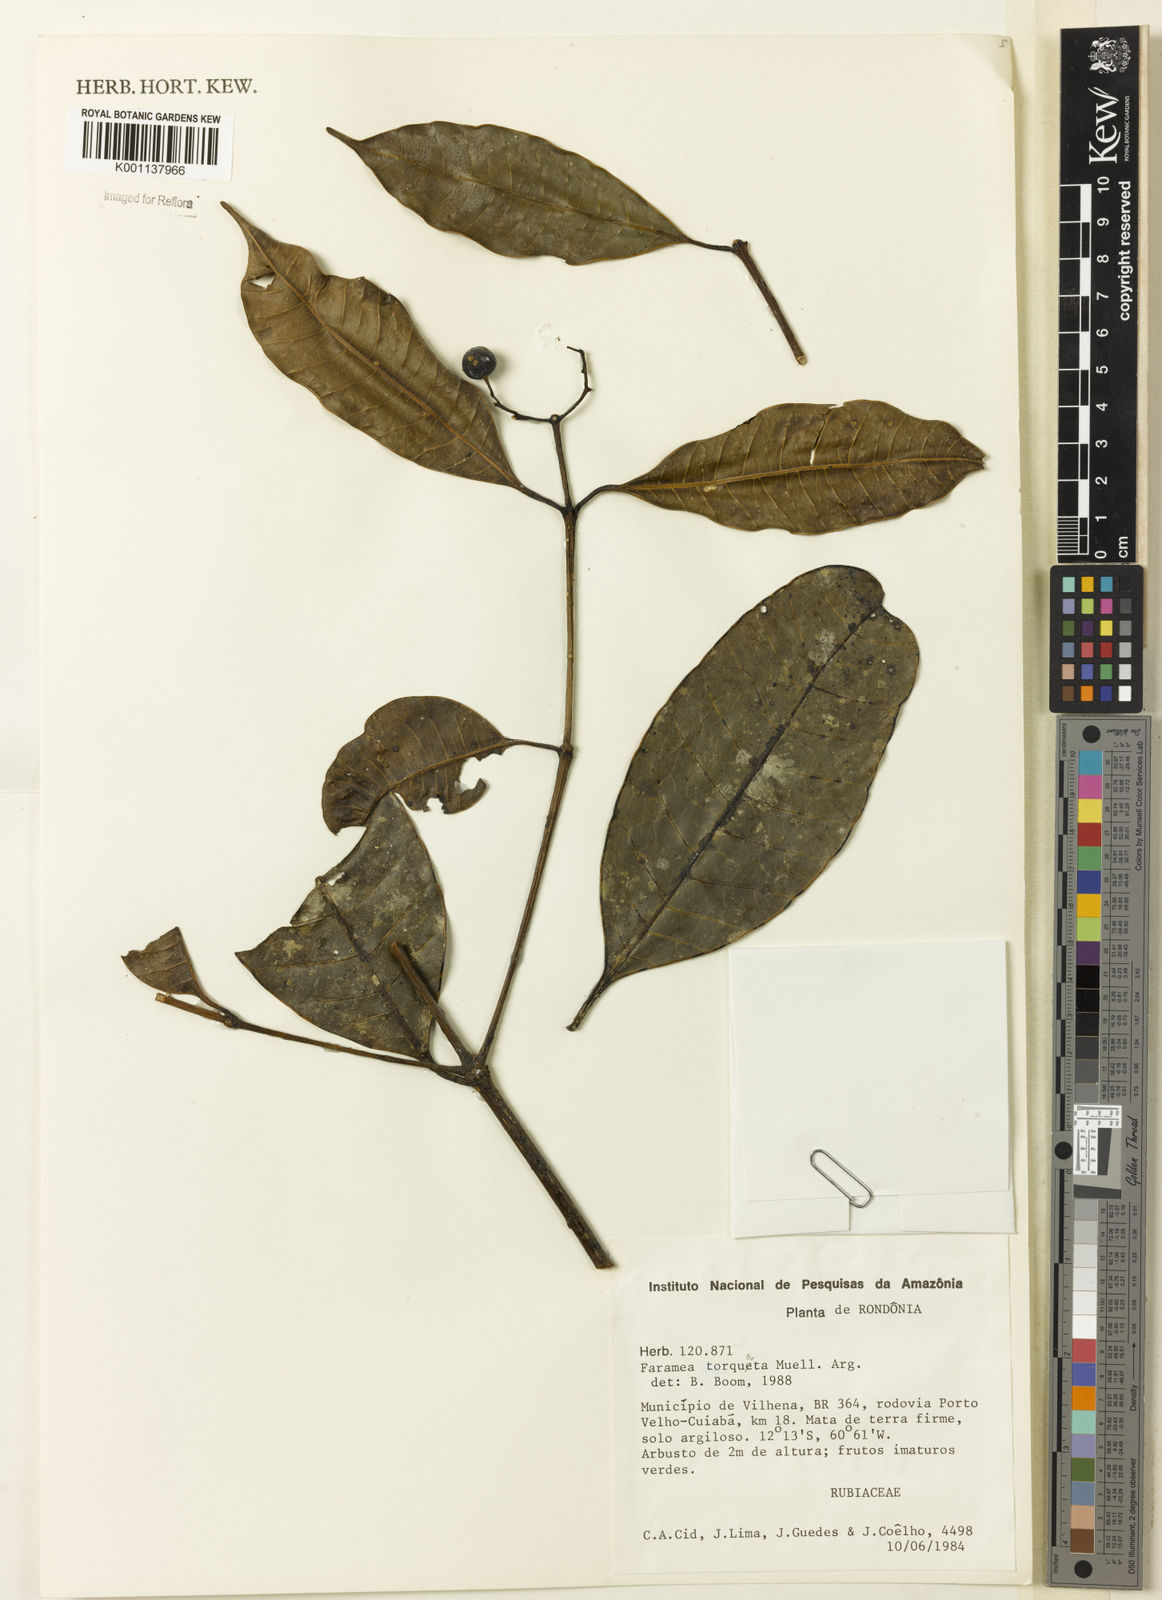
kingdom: Plantae
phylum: Tracheophyta
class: Magnoliopsida
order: Gentianales
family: Rubiaceae
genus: Faramea
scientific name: Faramea
